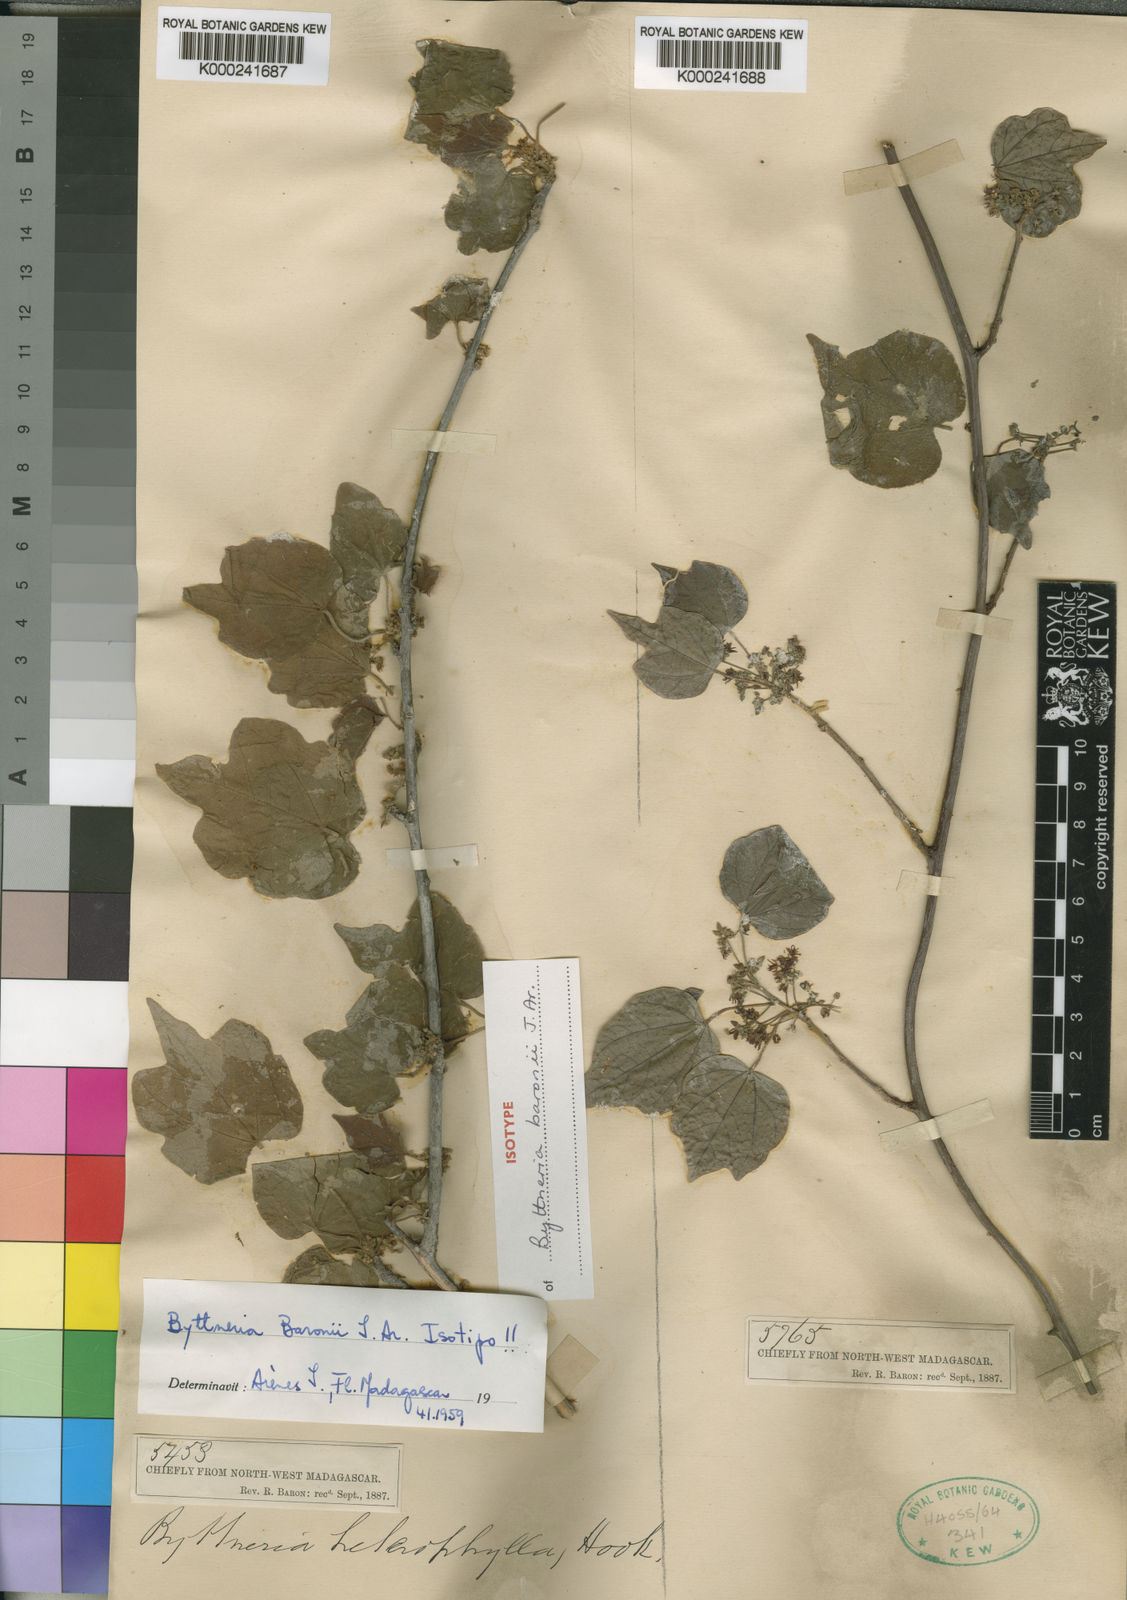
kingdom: Plantae
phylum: Tracheophyta
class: Magnoliopsida
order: Malvales
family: Malvaceae
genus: Byttneria
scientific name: Byttneria baronii
